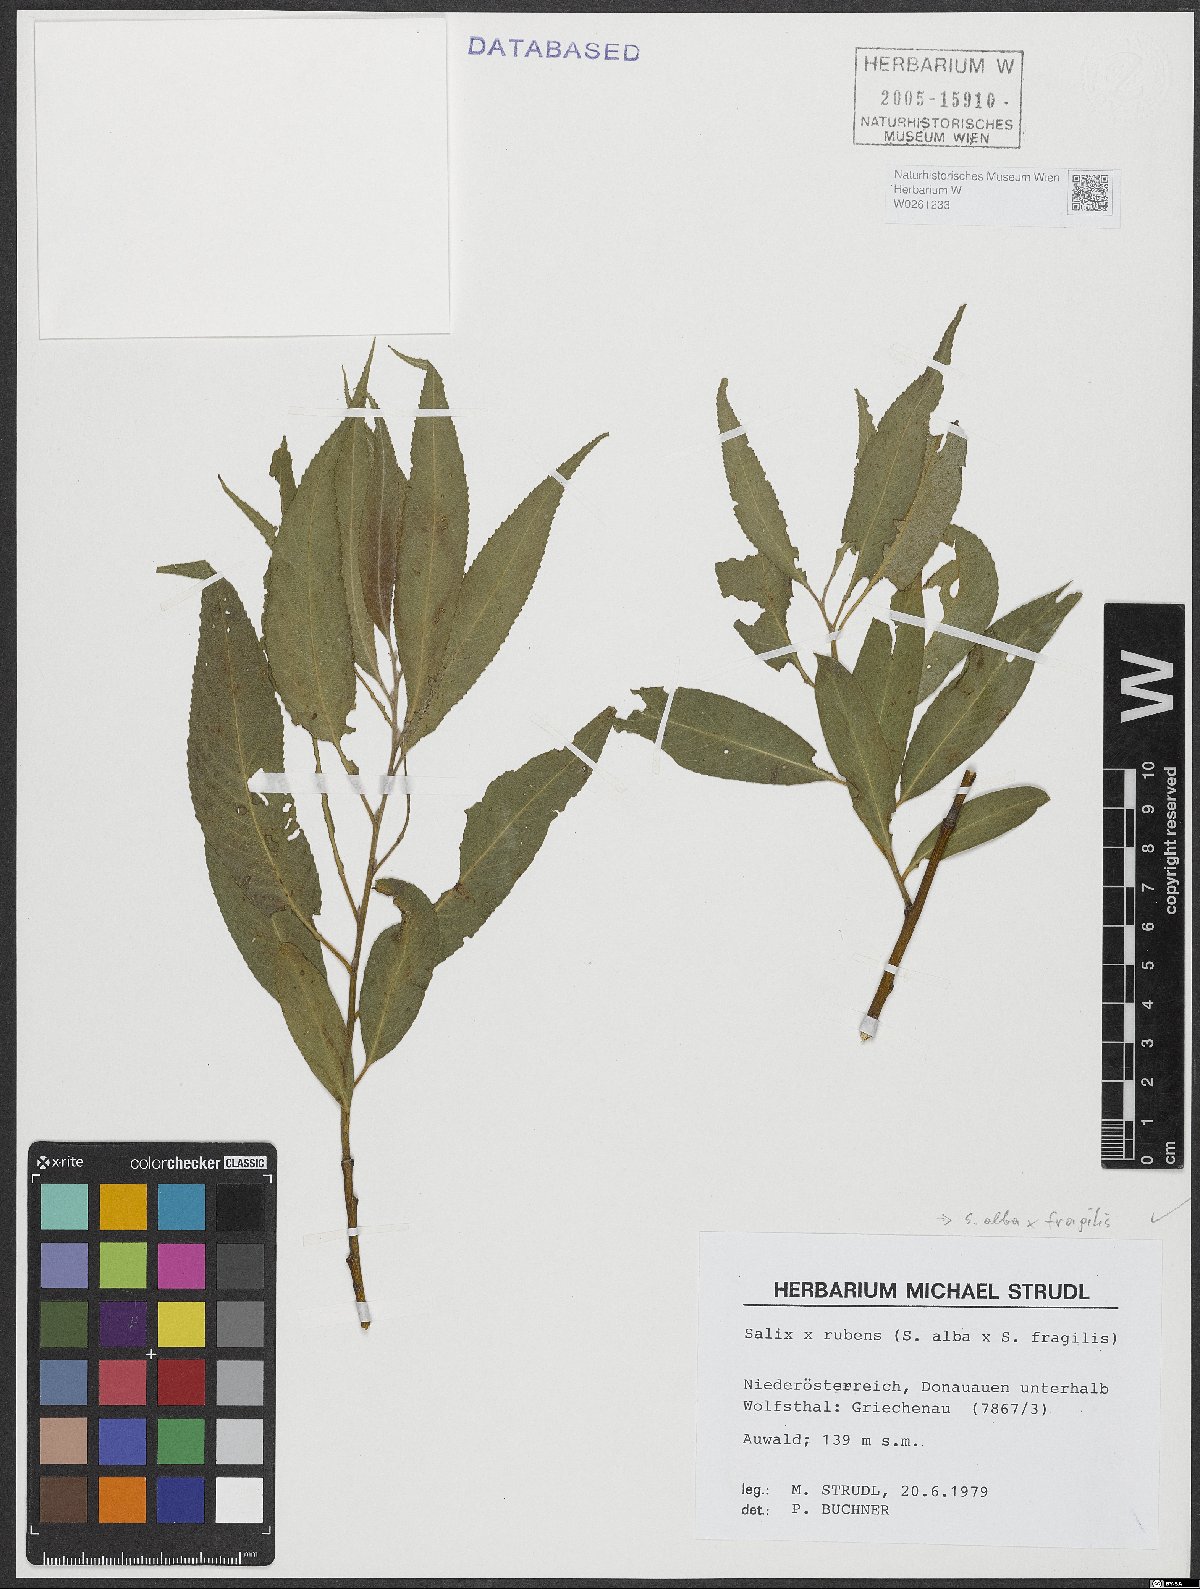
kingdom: Plantae
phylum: Tracheophyta
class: Magnoliopsida
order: Malpighiales
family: Salicaceae
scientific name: Salicaceae
